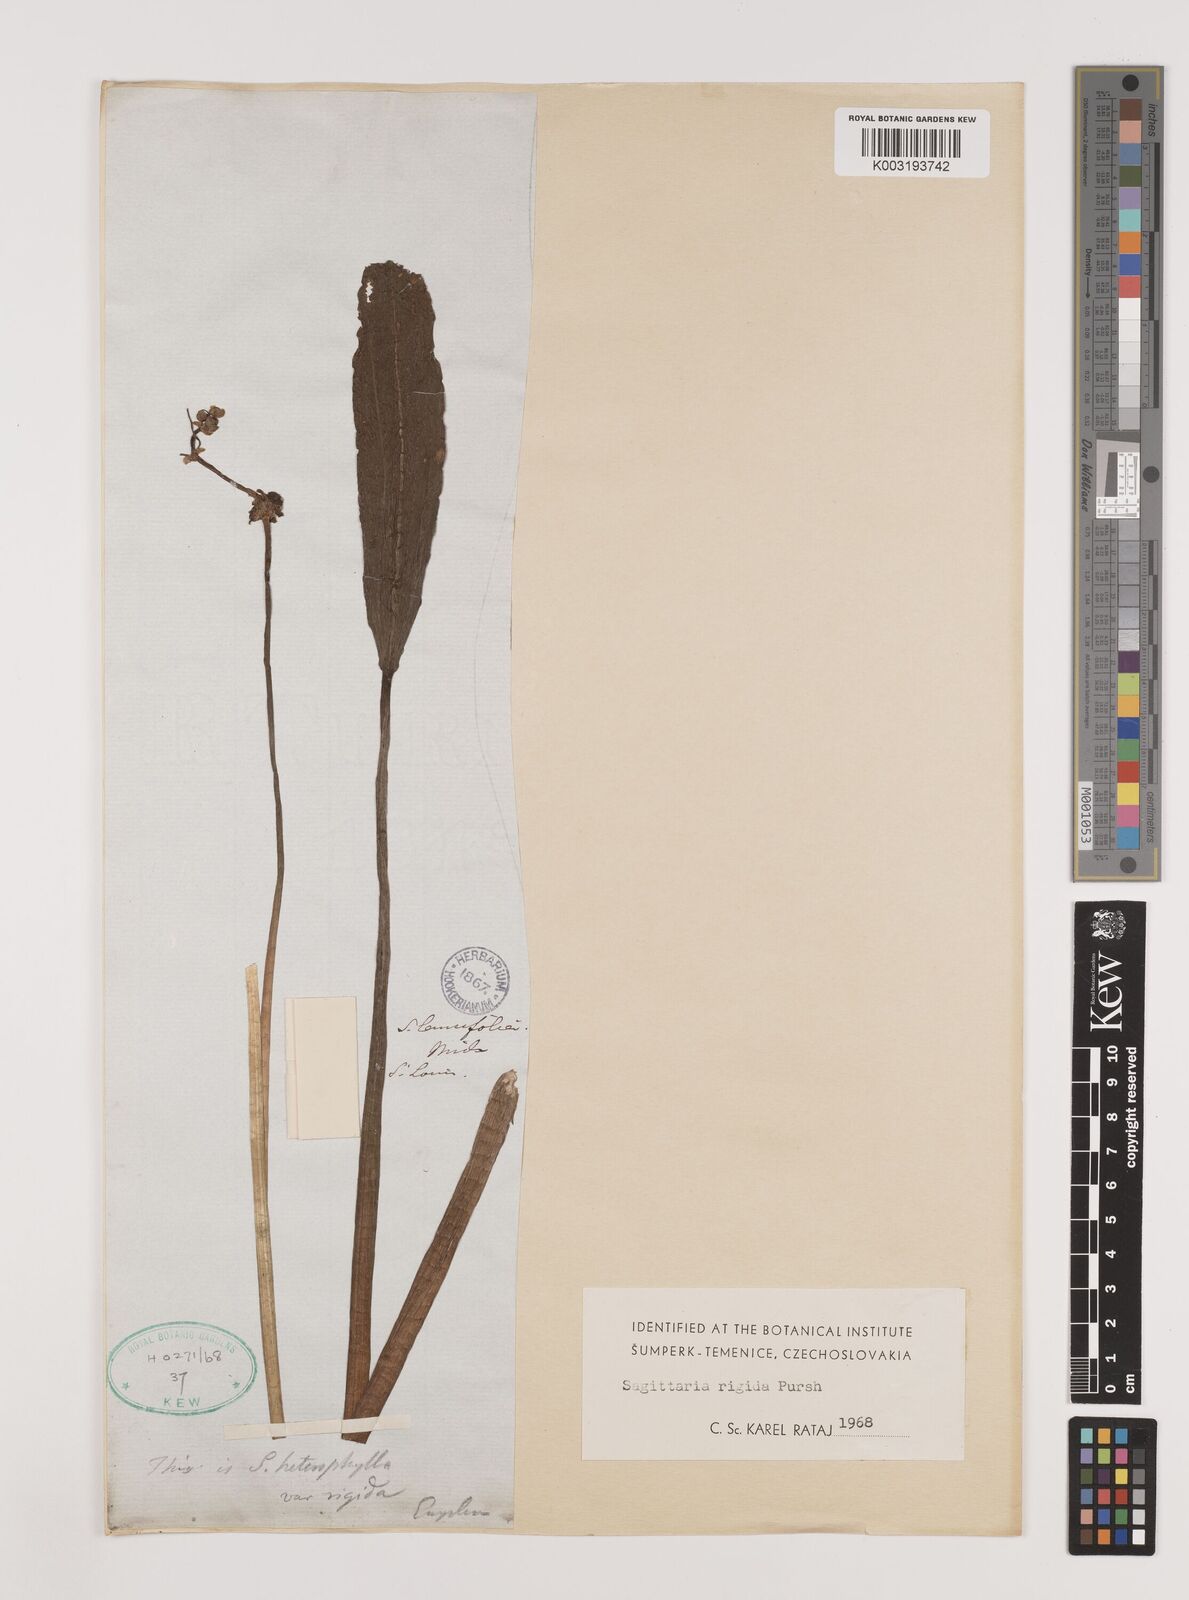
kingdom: Plantae
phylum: Tracheophyta
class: Liliopsida
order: Alismatales
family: Alismataceae
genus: Sagittaria
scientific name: Sagittaria rigida
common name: Canadian arrowhead
